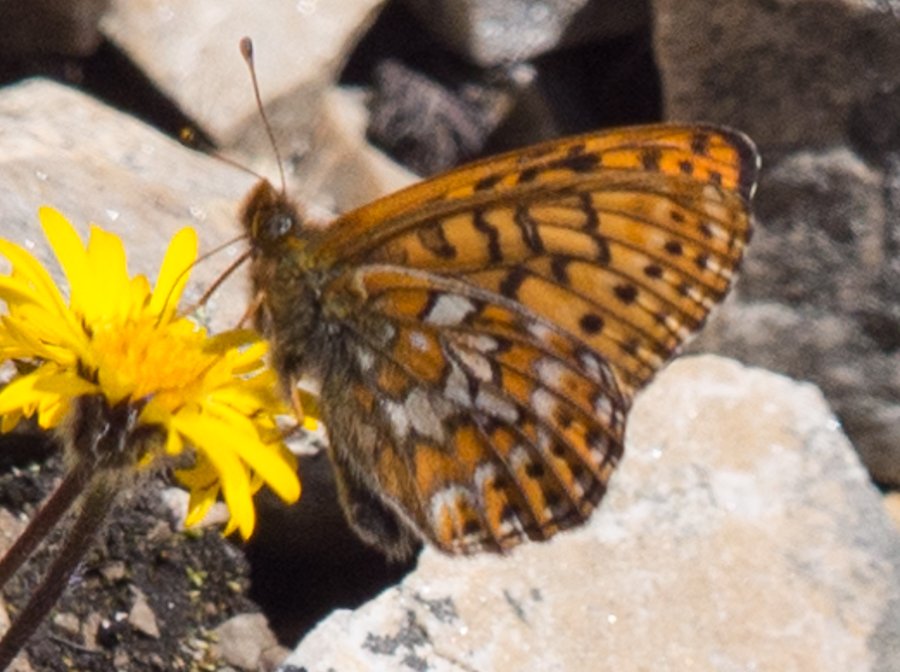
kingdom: Animalia
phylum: Arthropoda
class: Insecta
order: Lepidoptera
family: Nymphalidae
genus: Clossiana
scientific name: Clossiana astarte
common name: Astarte Fritillary
